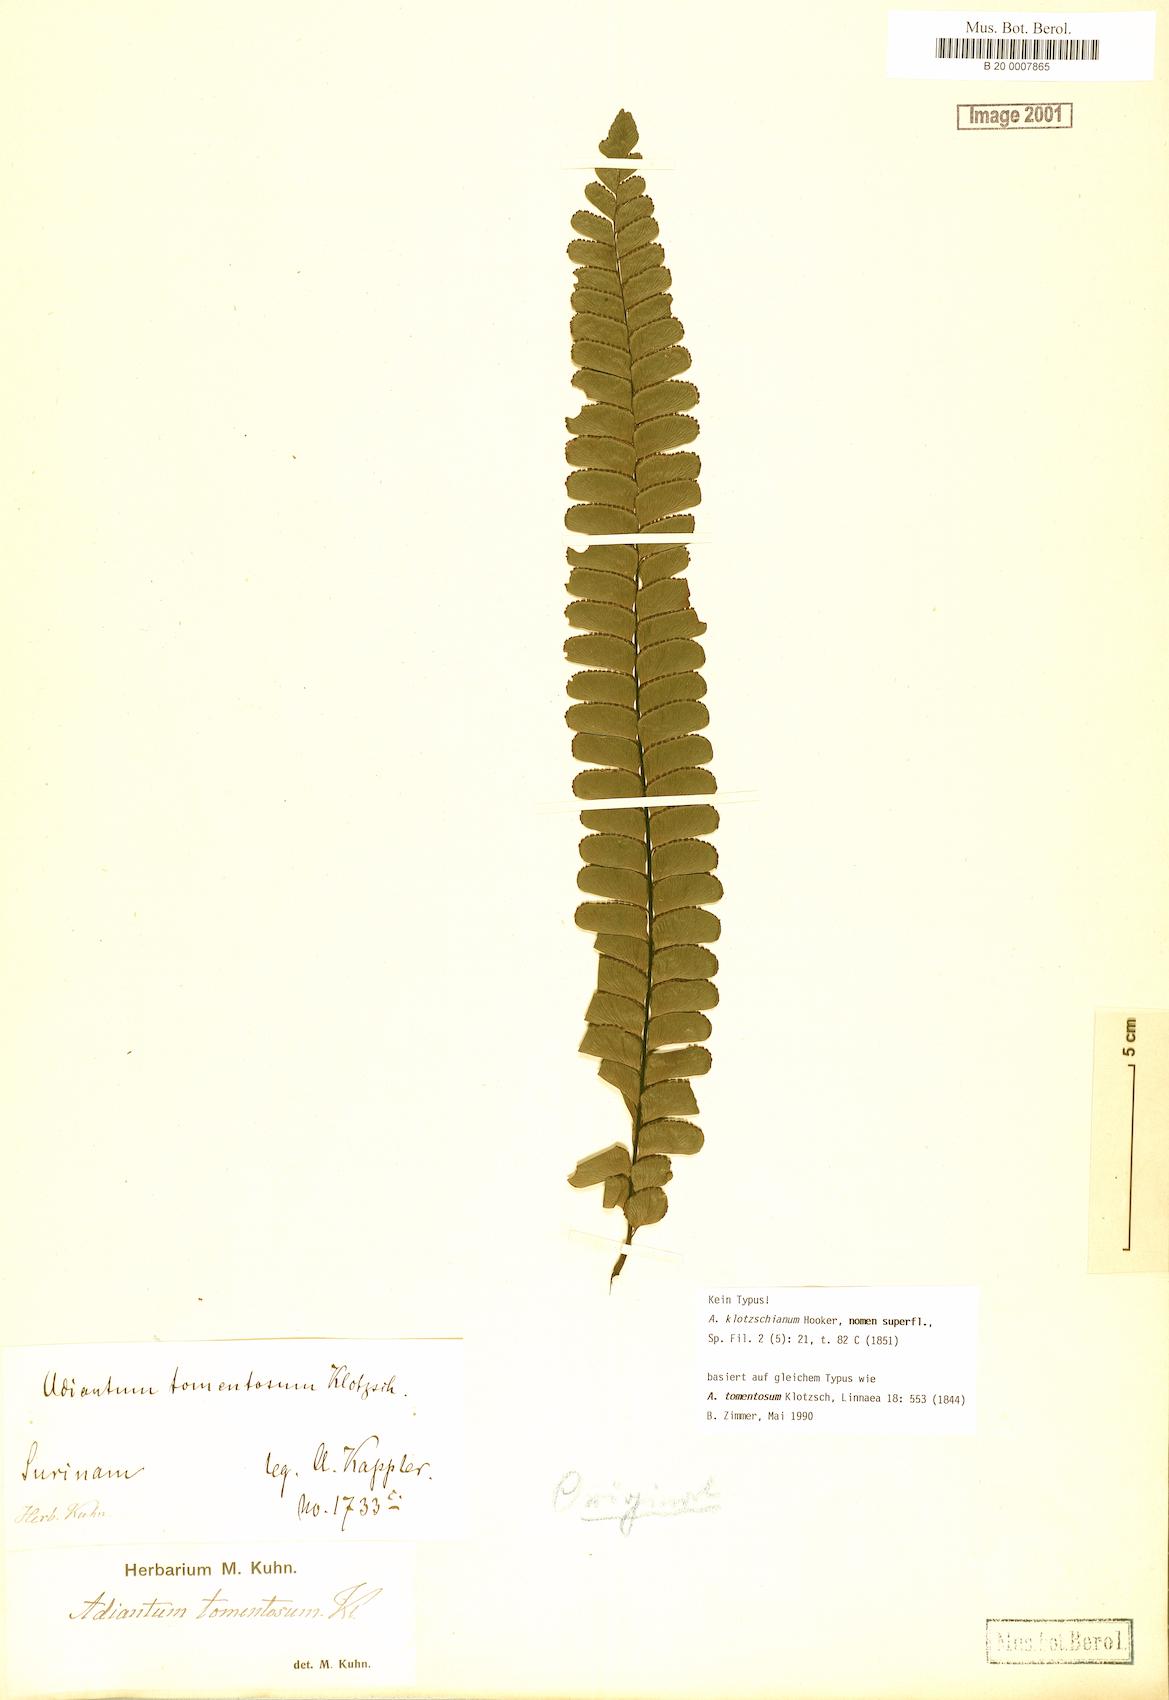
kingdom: Plantae
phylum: Tracheophyta
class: Polypodiopsida
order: Polypodiales
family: Pteridaceae
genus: Adiantum
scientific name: Adiantum tomentosum
